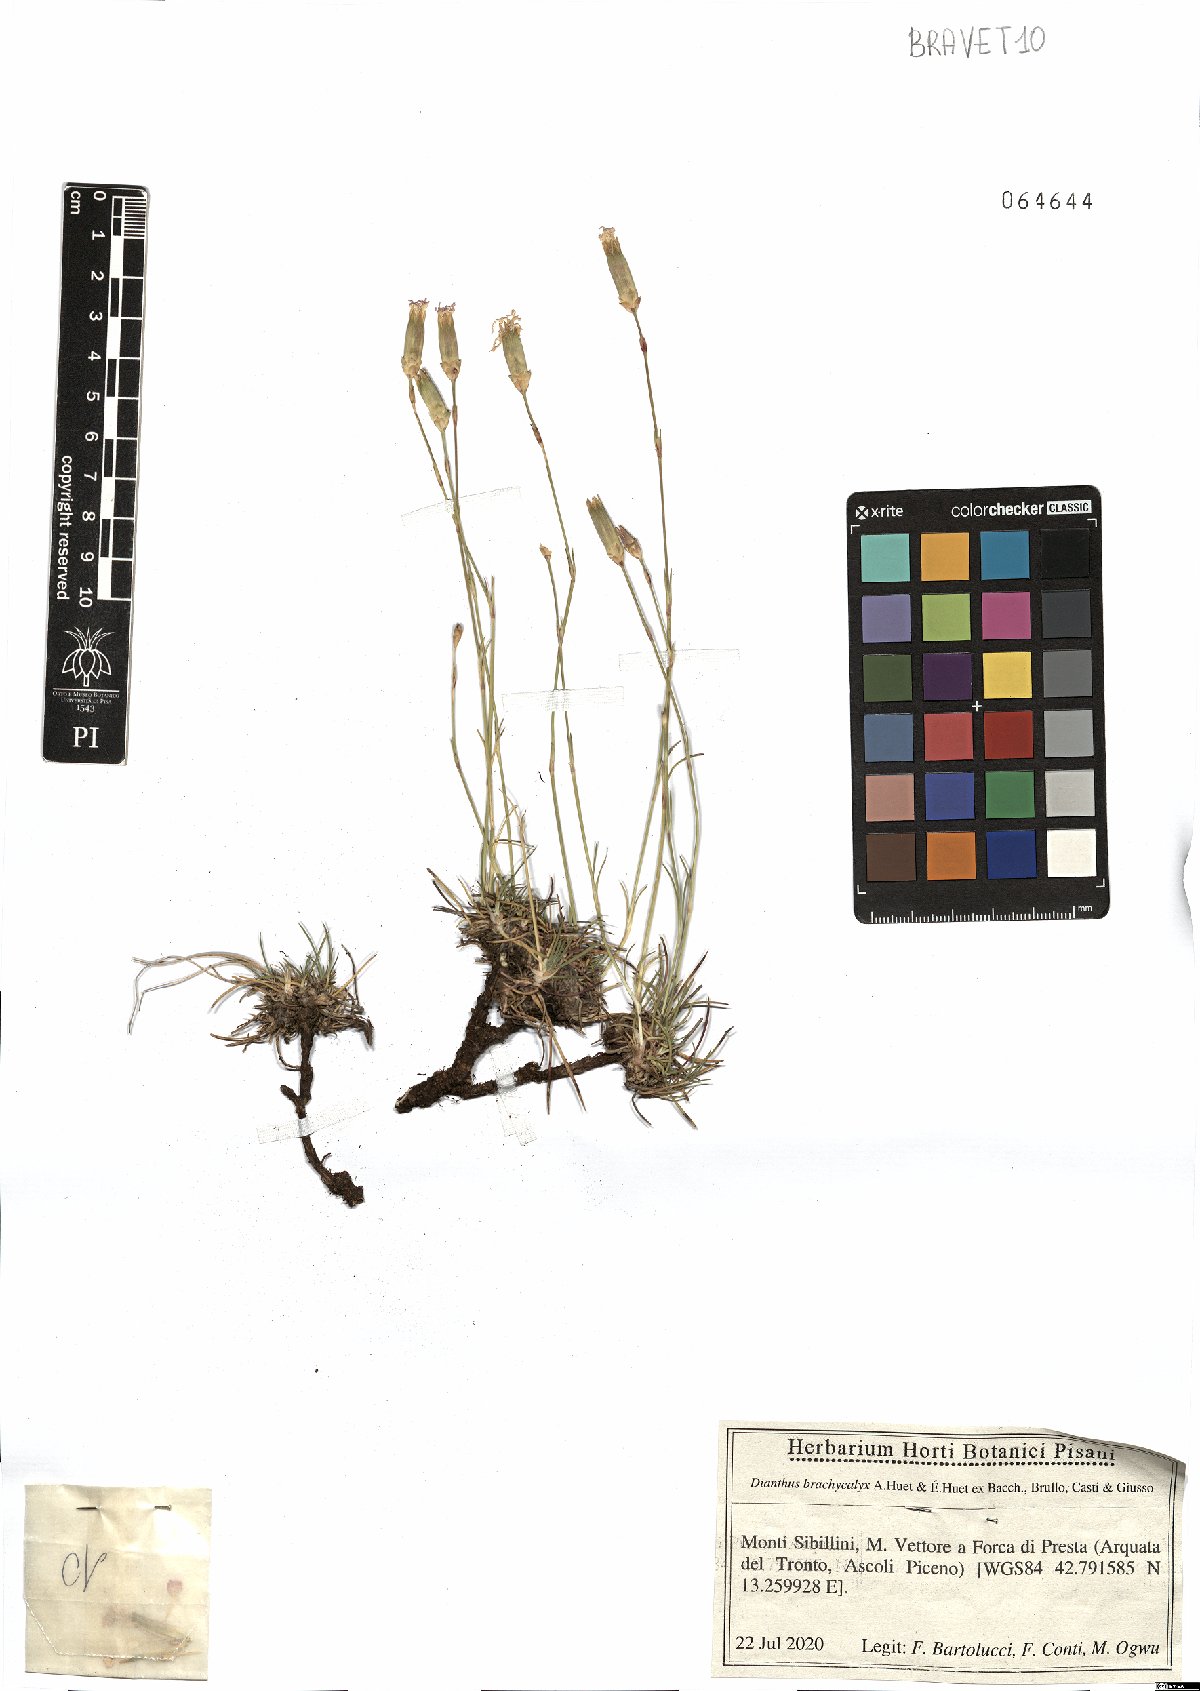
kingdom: Plantae
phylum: Tracheophyta
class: Magnoliopsida
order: Caryophyllales
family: Caryophyllaceae
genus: Dianthus
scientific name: Dianthus brachycalyx
